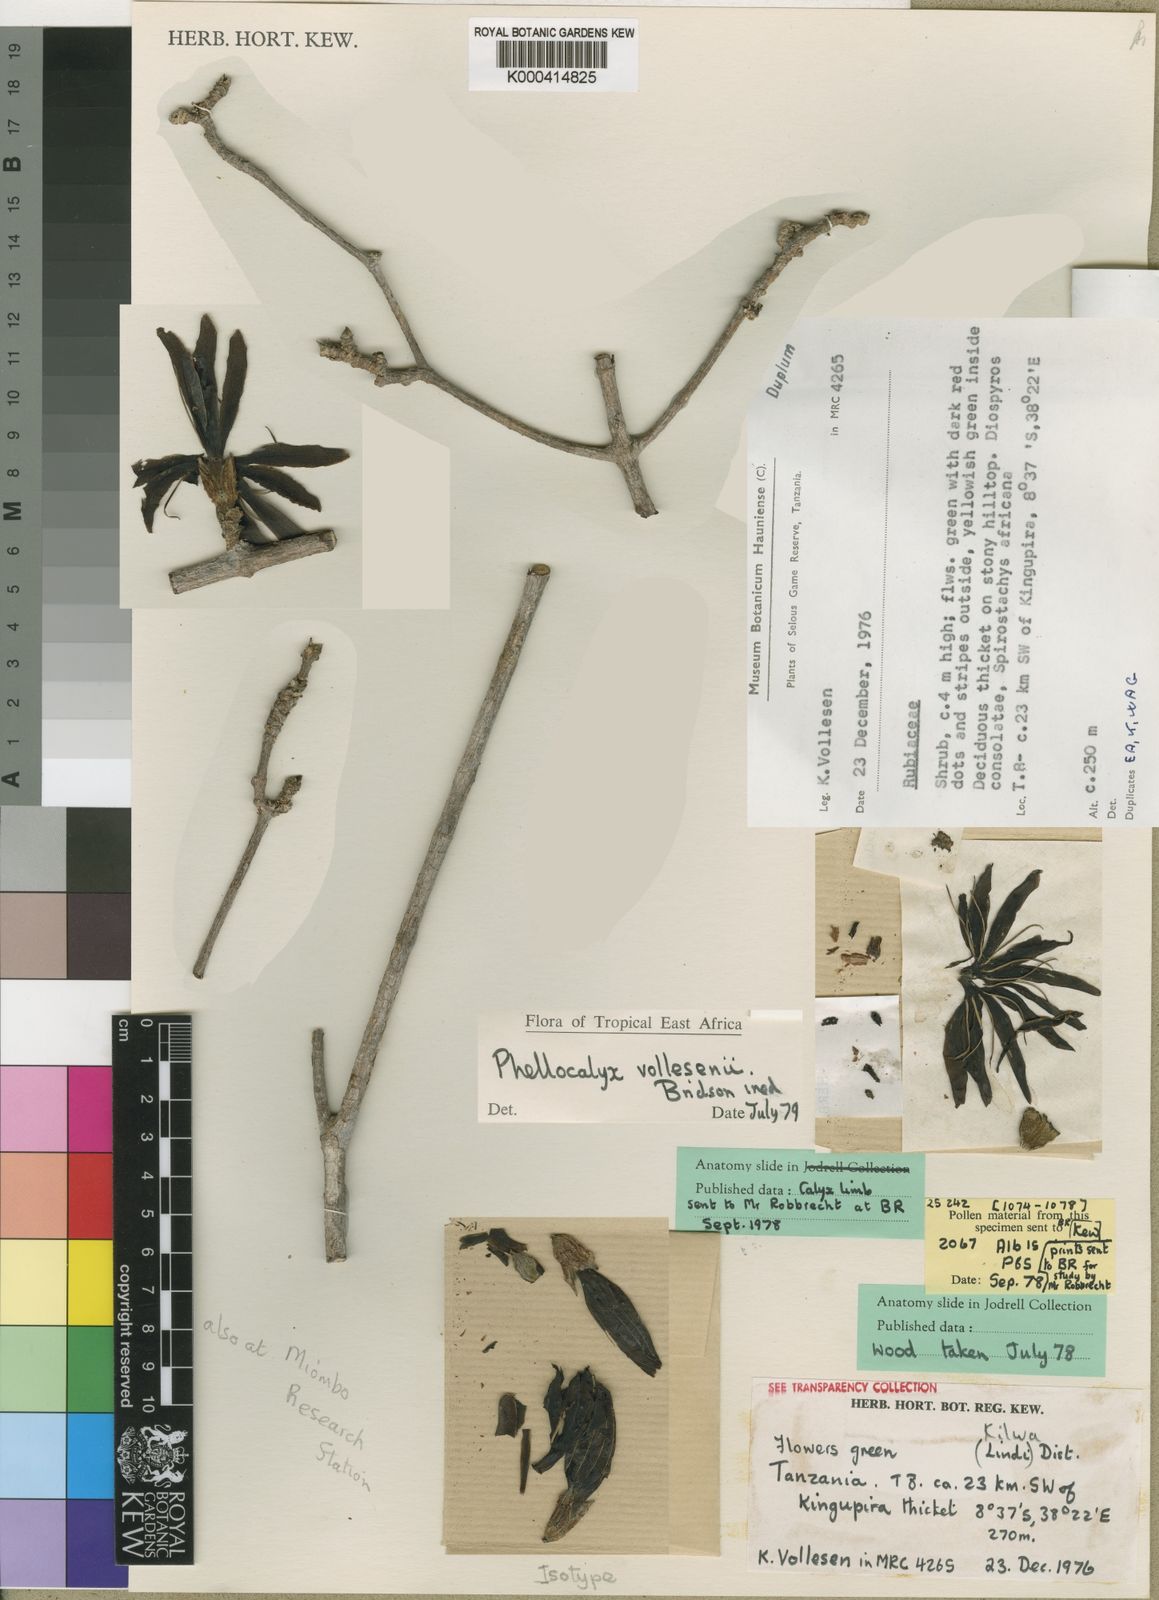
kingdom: Plantae
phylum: Tracheophyta
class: Magnoliopsida
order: Gentianales
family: Rubiaceae
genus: Phellocalyx
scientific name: Phellocalyx vollesenii
